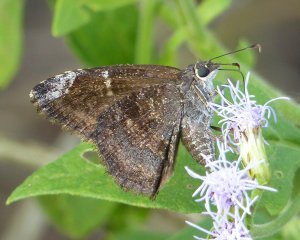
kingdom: Animalia
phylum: Arthropoda
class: Insecta
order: Lepidoptera
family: Hesperiidae
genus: Caicella
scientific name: Caicella calchas
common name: Mimosa Skipper
